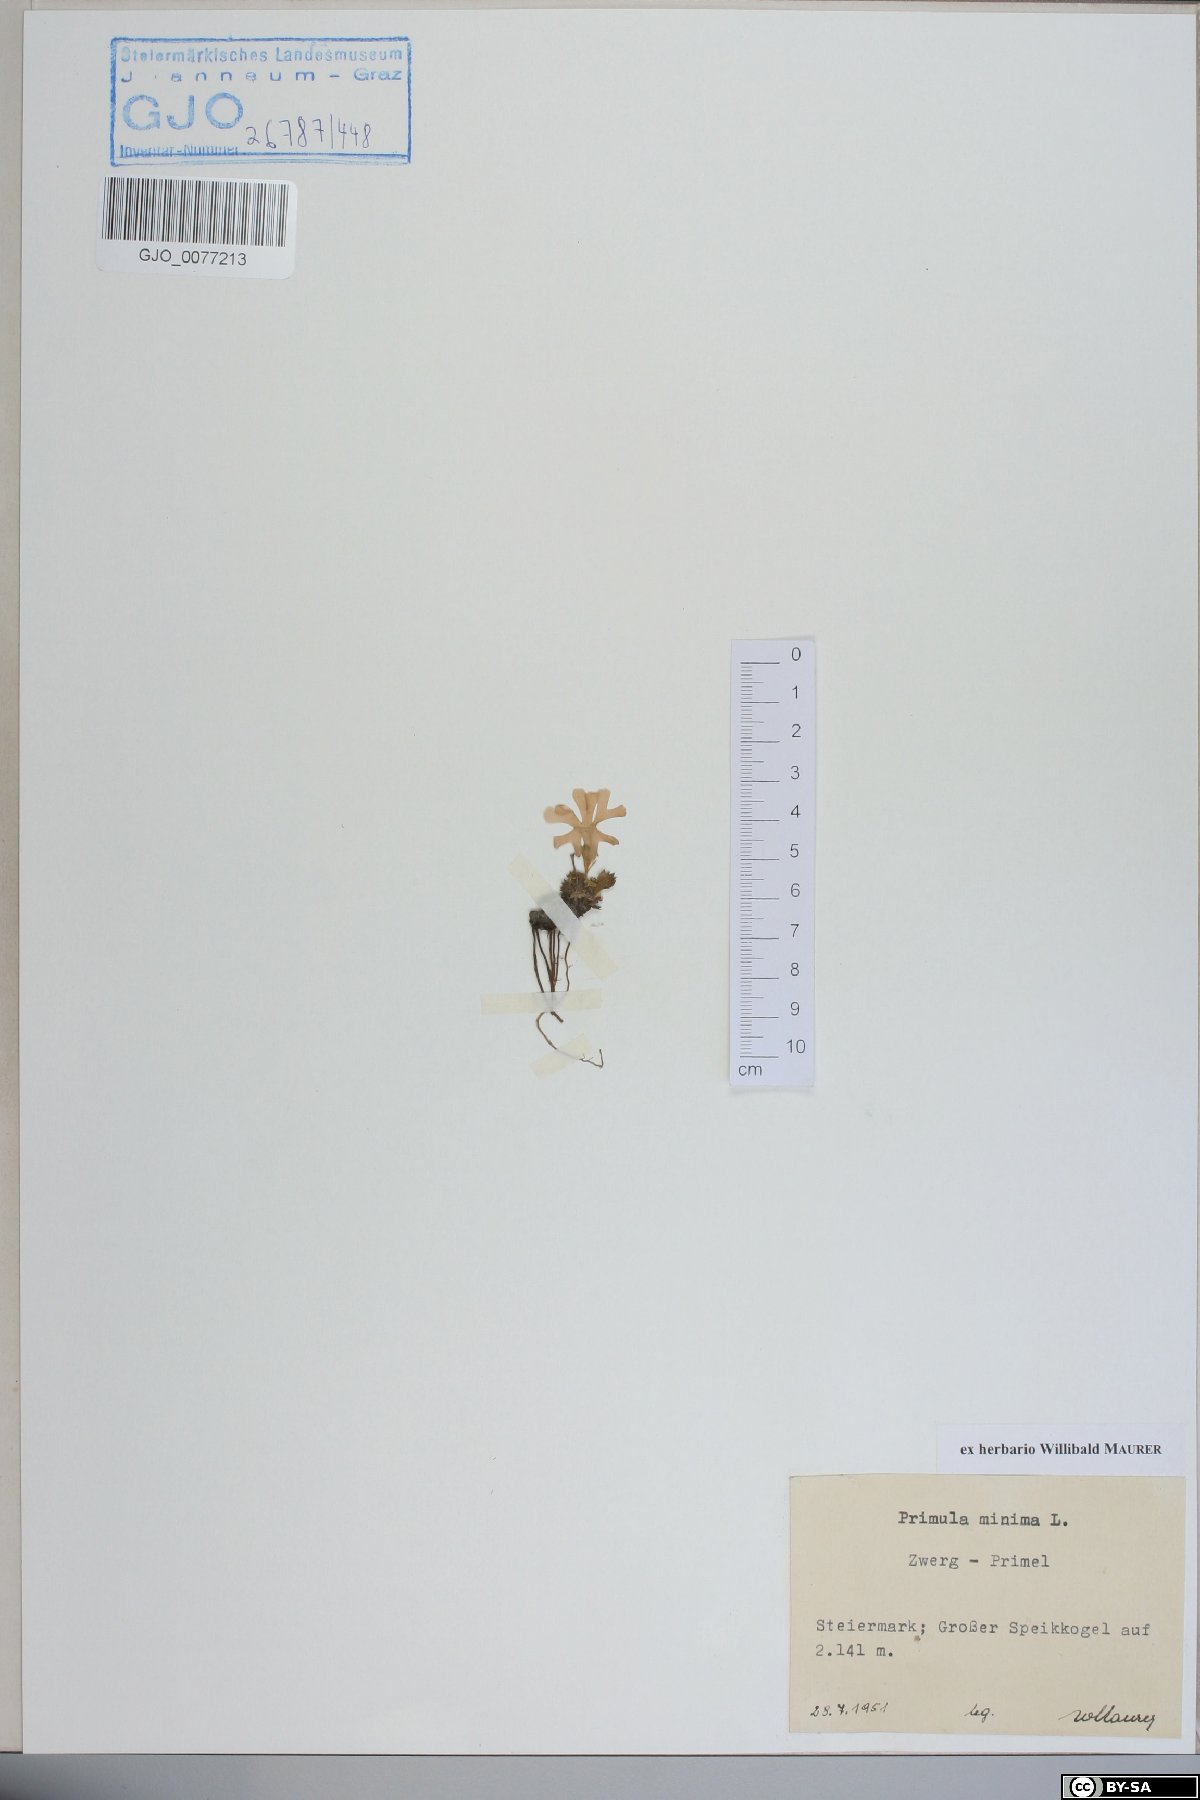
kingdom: Plantae
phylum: Tracheophyta
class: Magnoliopsida
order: Ericales
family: Primulaceae
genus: Primula
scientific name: Primula minima
